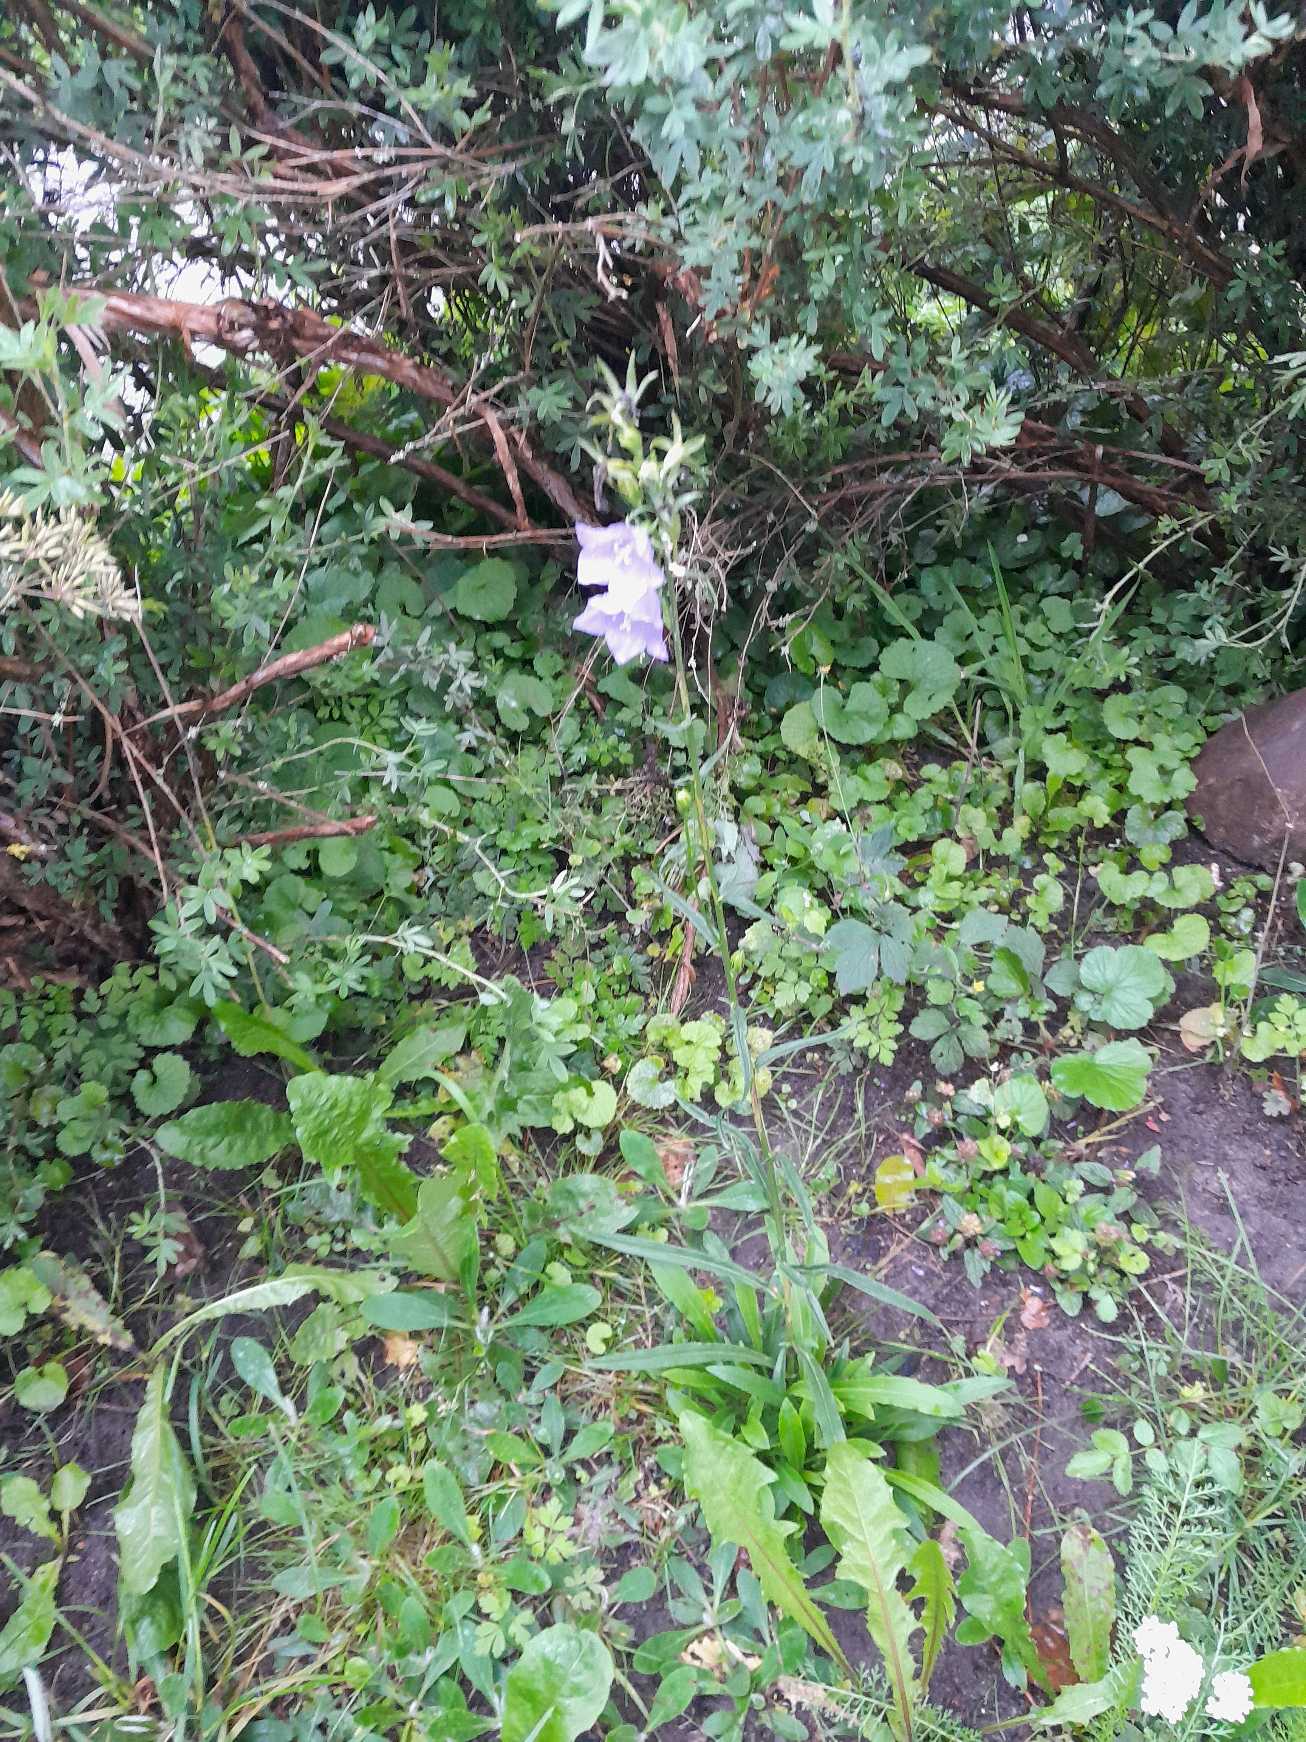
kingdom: Plantae
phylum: Tracheophyta
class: Magnoliopsida
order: Asterales
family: Campanulaceae
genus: Campanula
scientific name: Campanula persicifolia
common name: Smalbladet klokke
